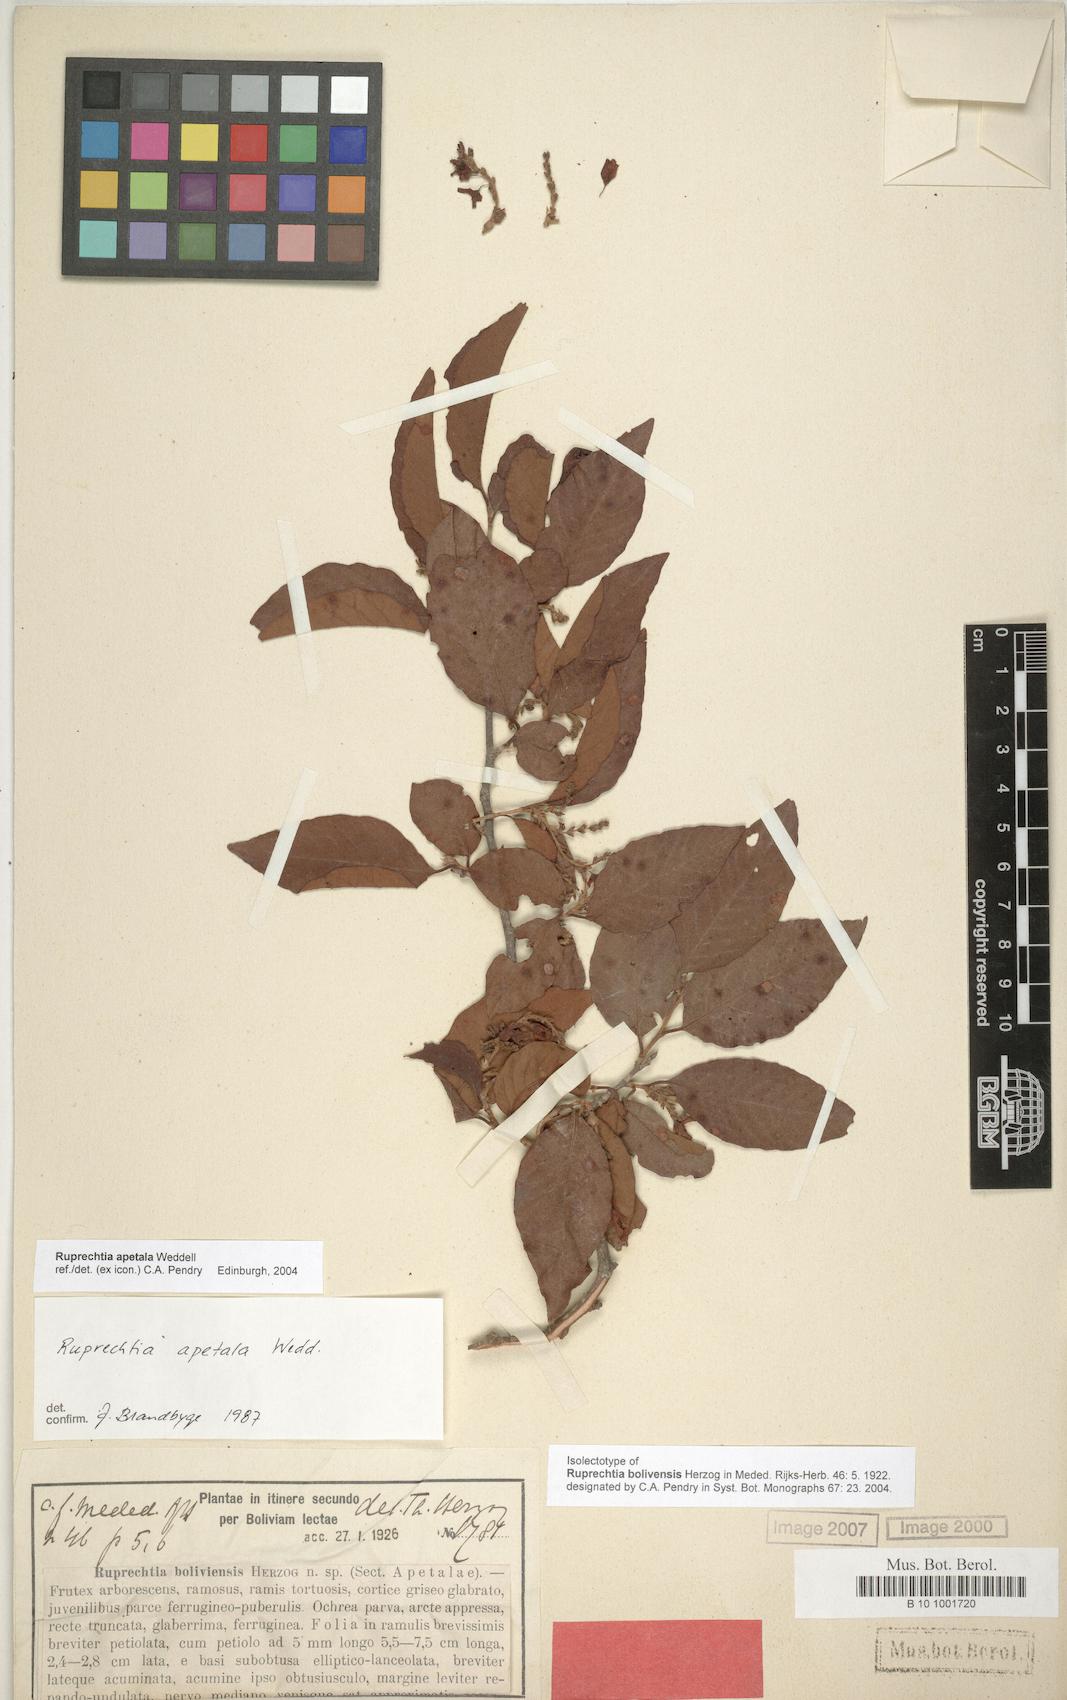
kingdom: Plantae
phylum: Tracheophyta
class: Magnoliopsida
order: Caryophyllales
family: Polygonaceae
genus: Ruprechtia
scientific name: Ruprechtia apetala
